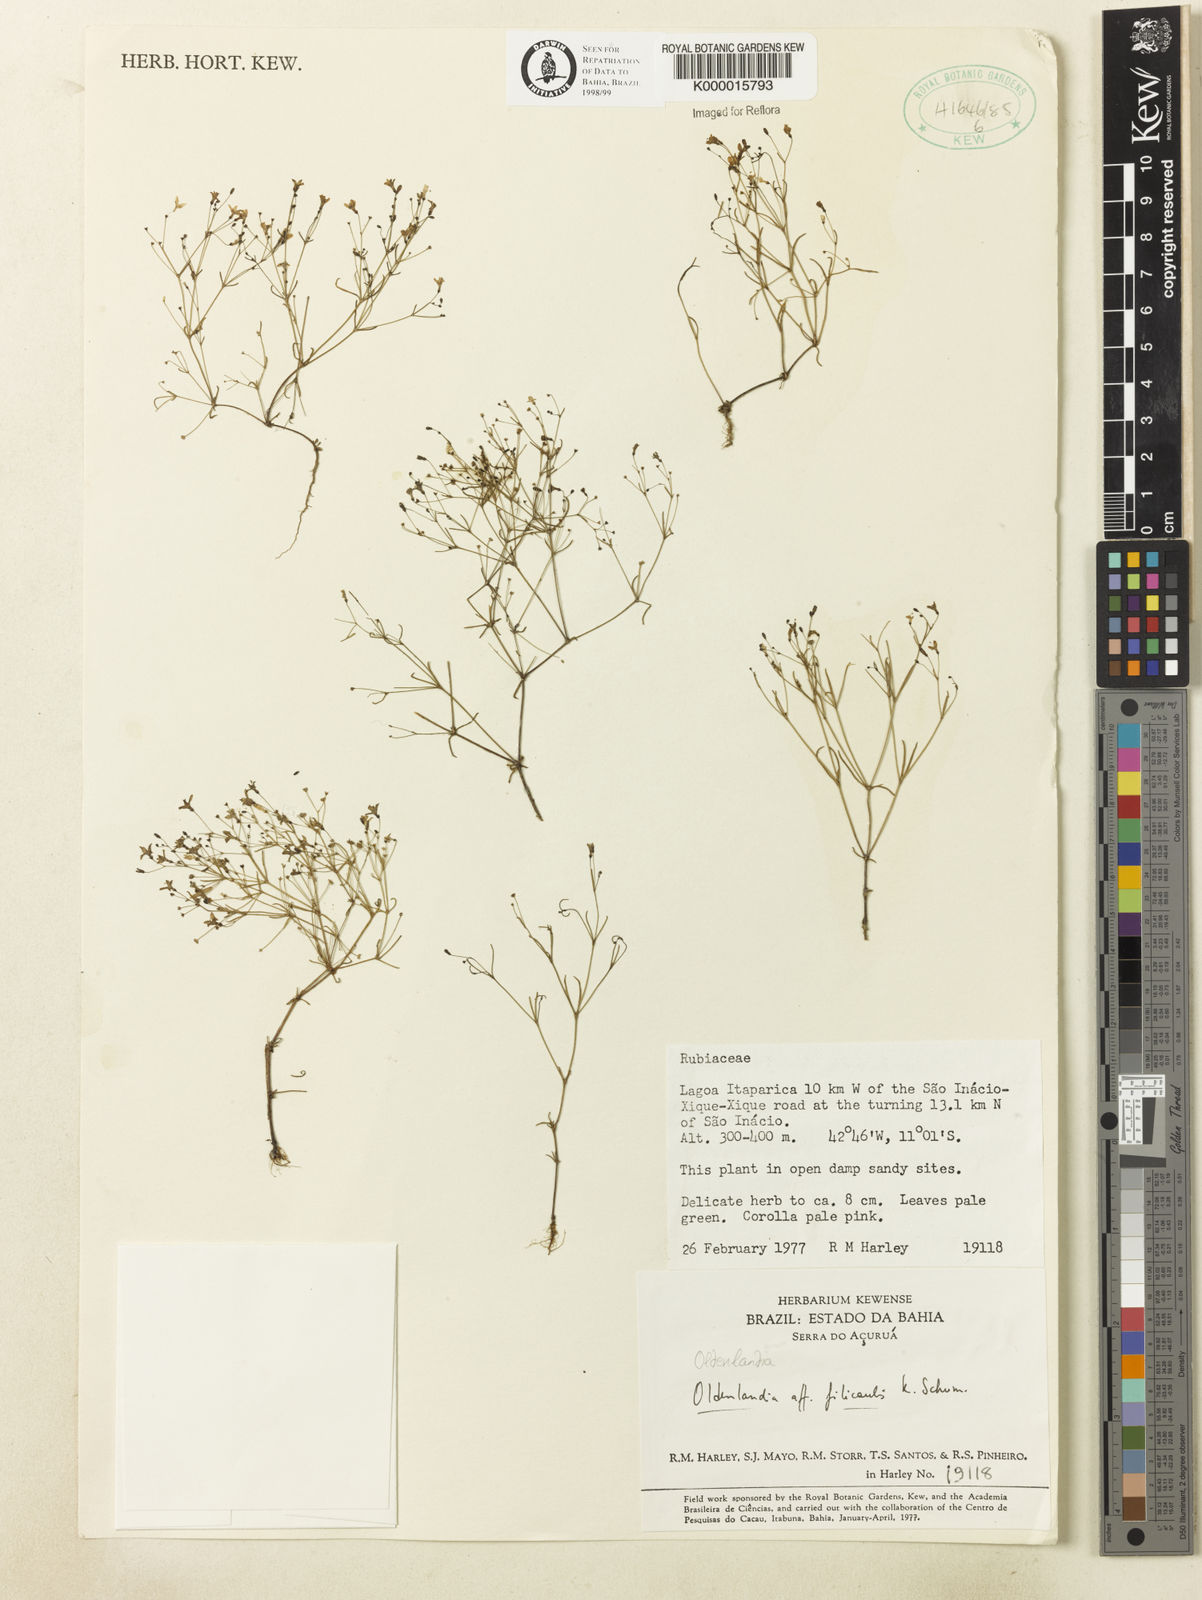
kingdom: Plantae
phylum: Tracheophyta
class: Magnoliopsida
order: Gentianales
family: Rubiaceae
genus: Oldenlandia
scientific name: Oldenlandia filicaulis
